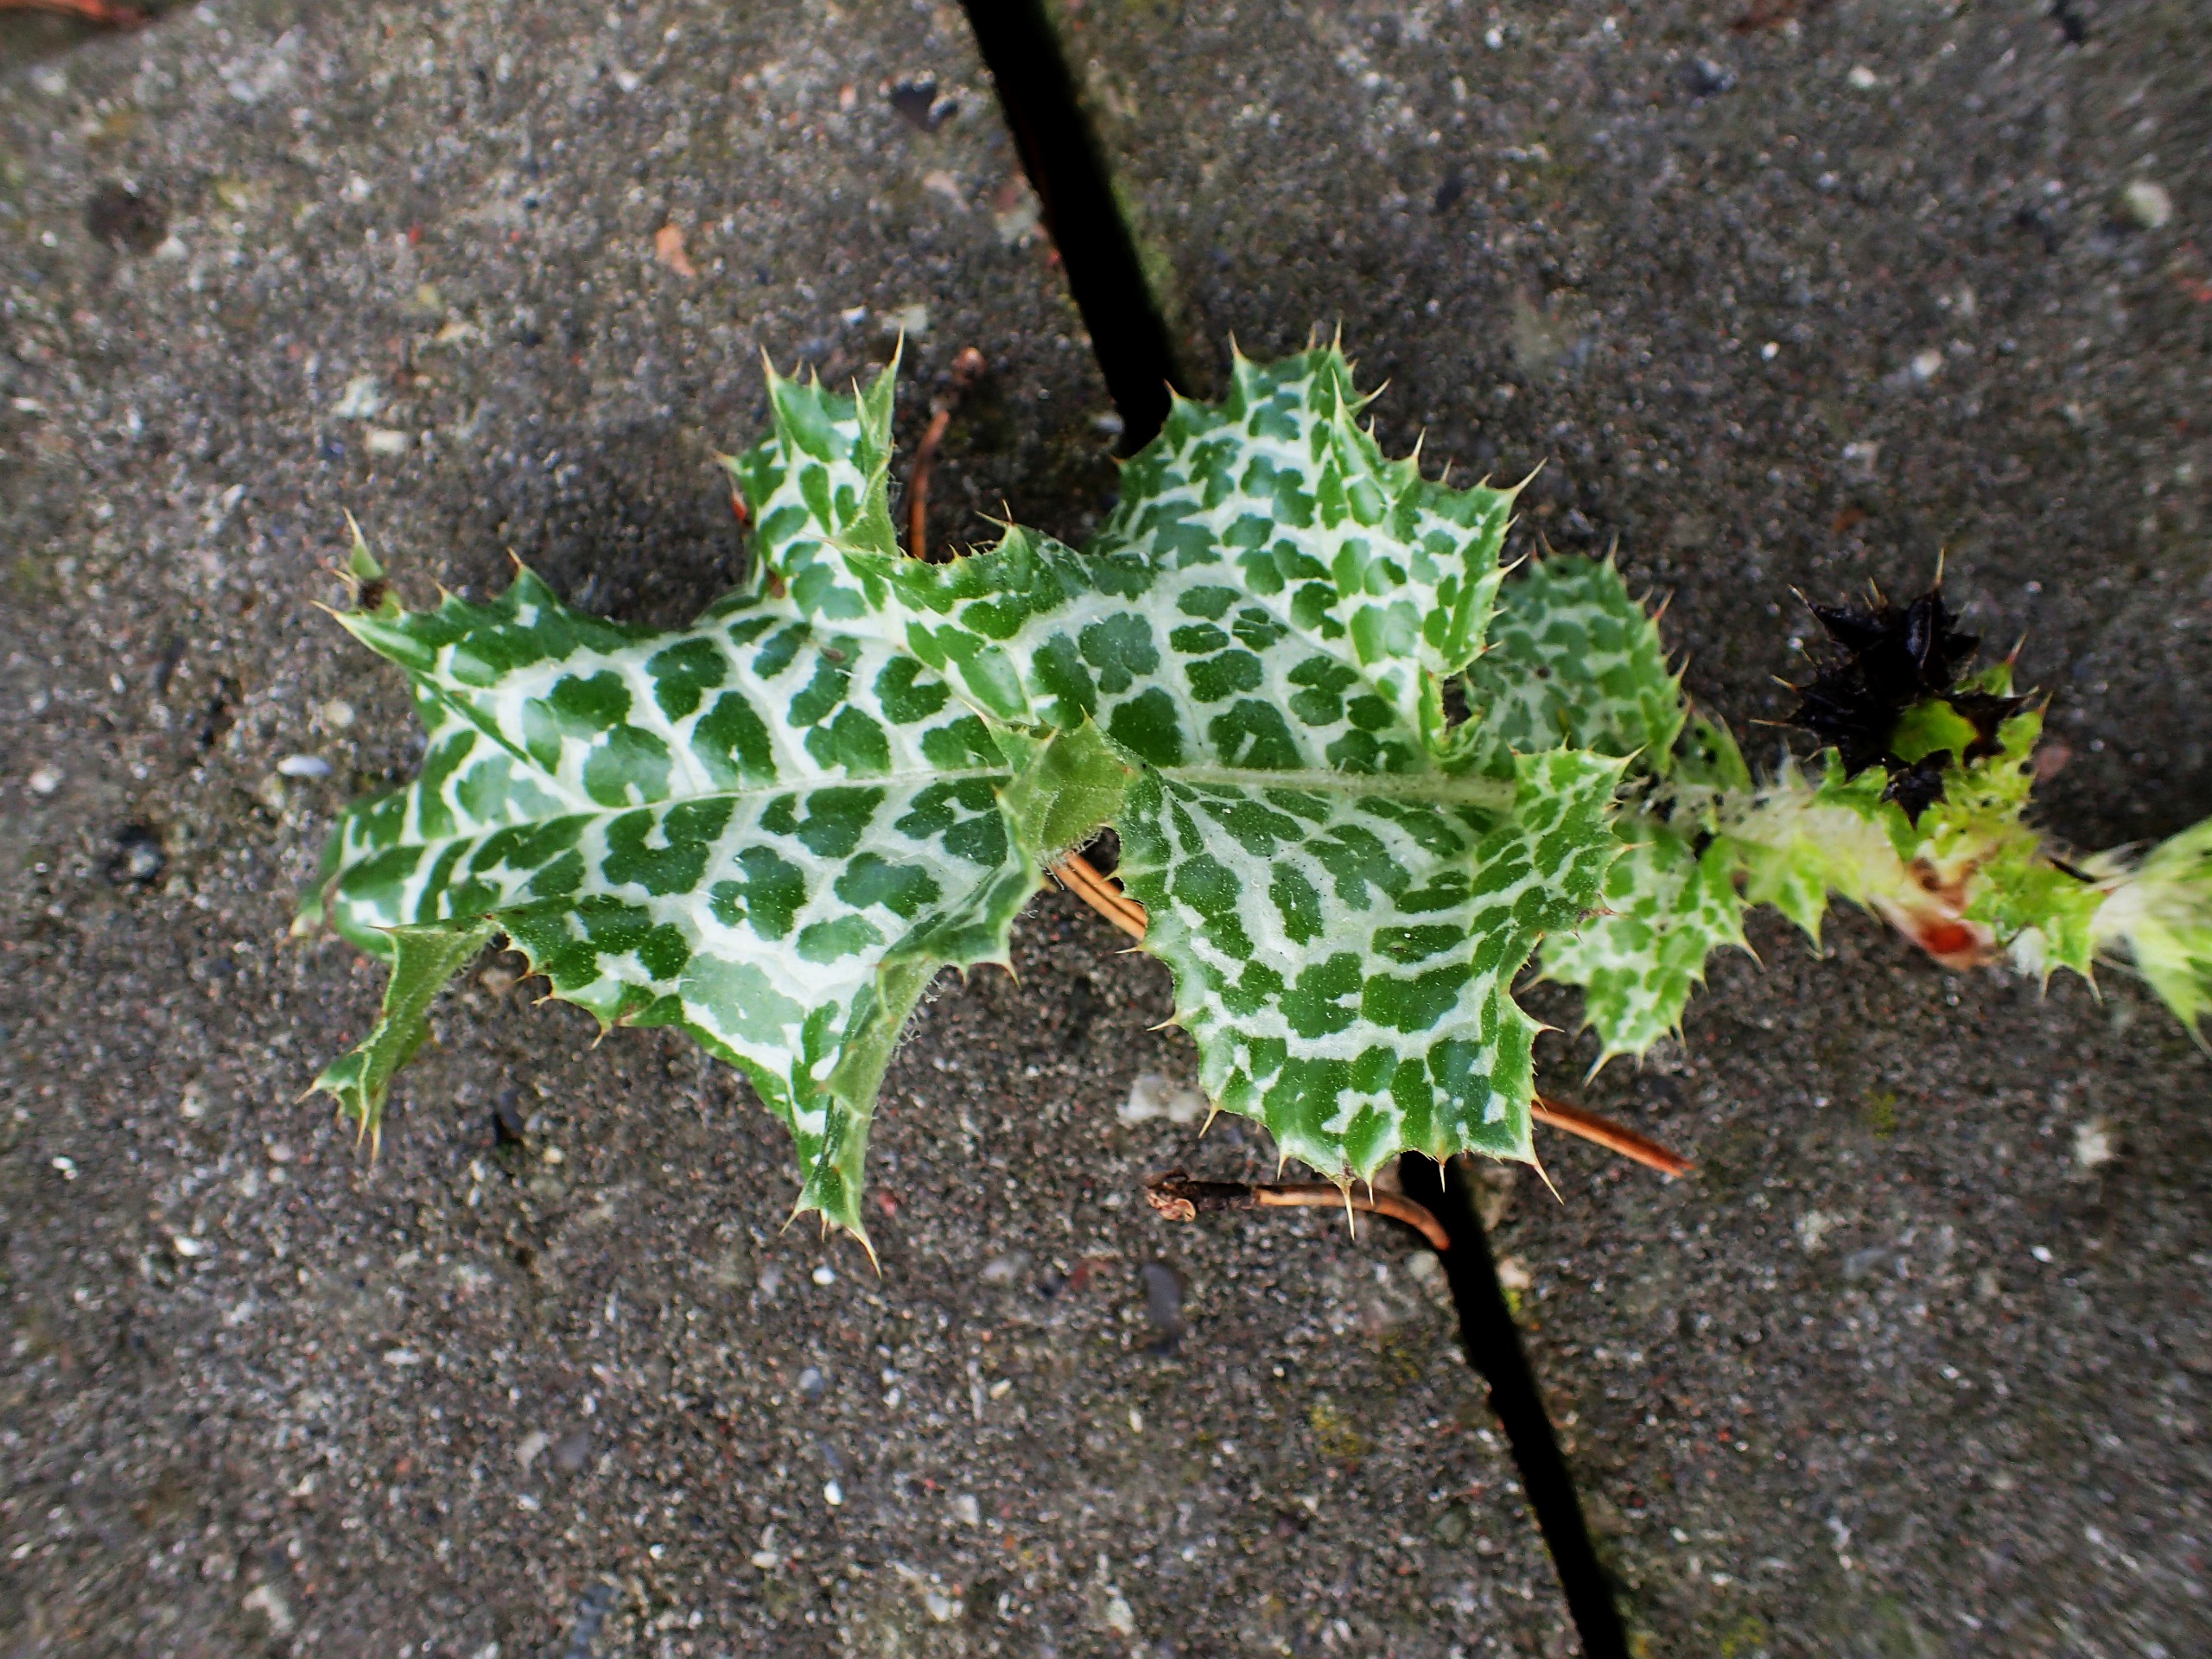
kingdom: Plantae
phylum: Tracheophyta
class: Magnoliopsida
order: Asterales
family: Asteraceae
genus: Silybum
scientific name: Silybum marianum
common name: Marietidsel
